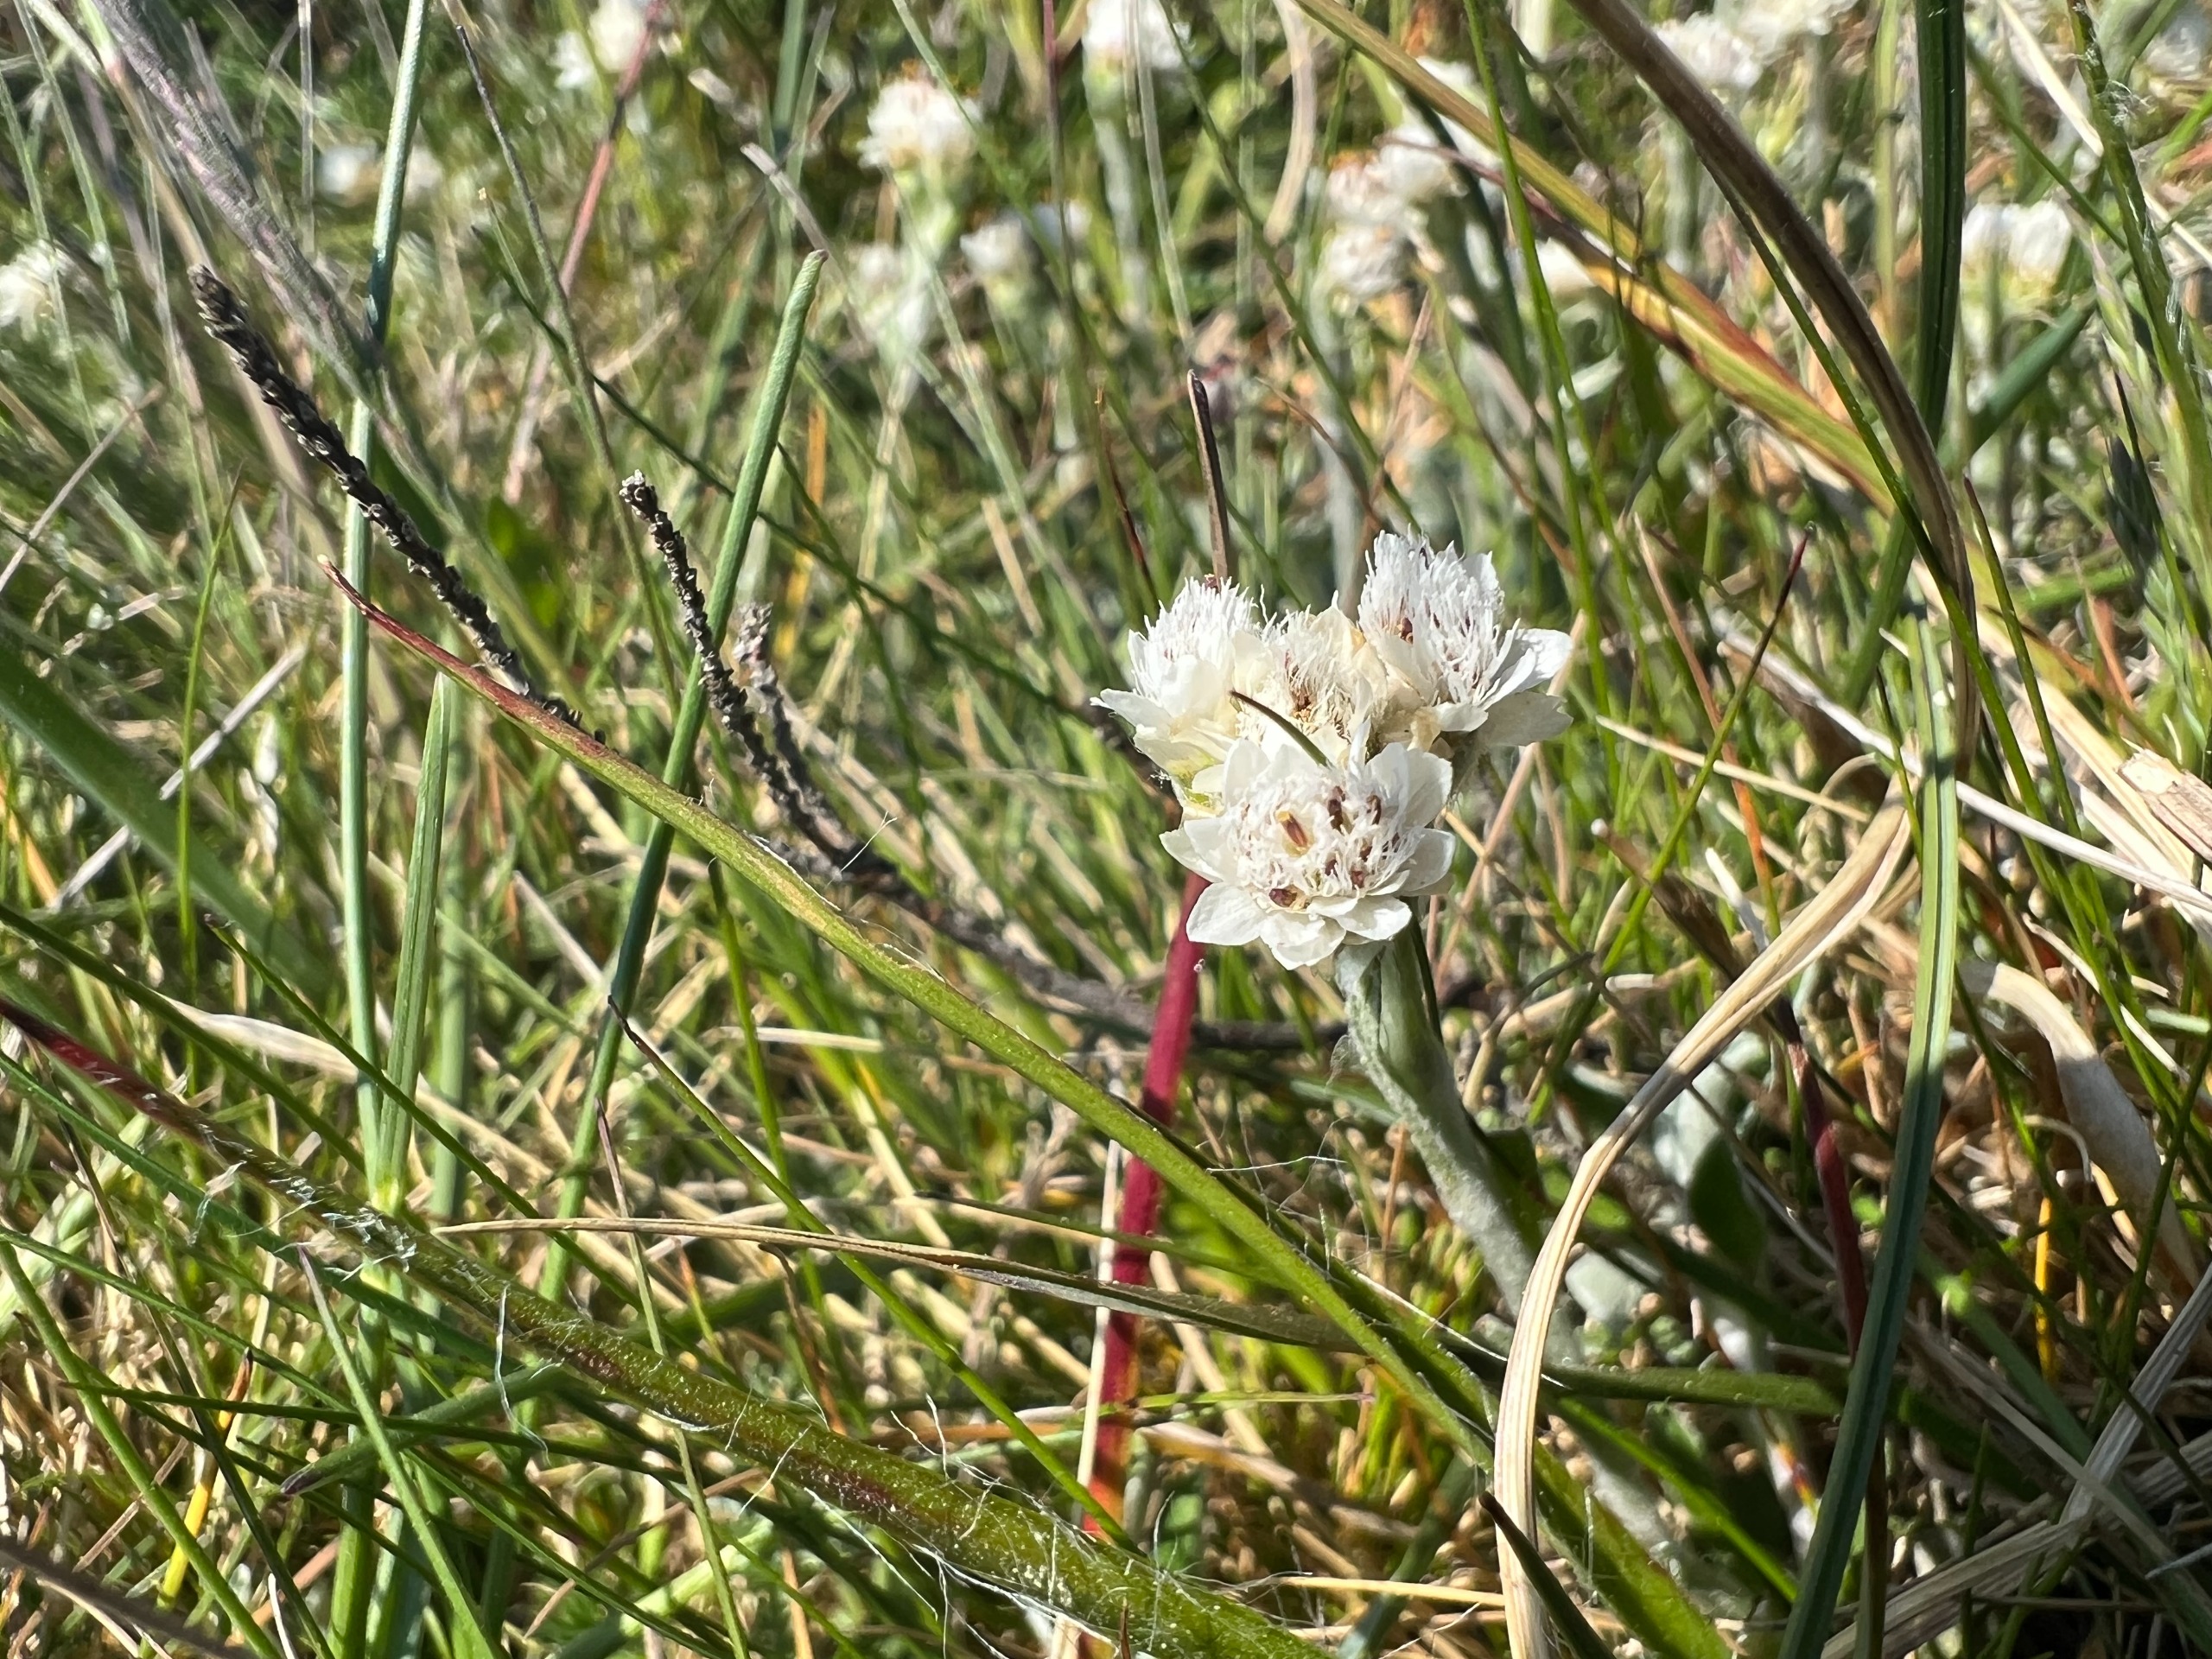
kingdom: Plantae
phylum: Tracheophyta
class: Magnoliopsida
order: Asterales
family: Asteraceae
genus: Antennaria
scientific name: Antennaria dioica
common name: Kattefod
